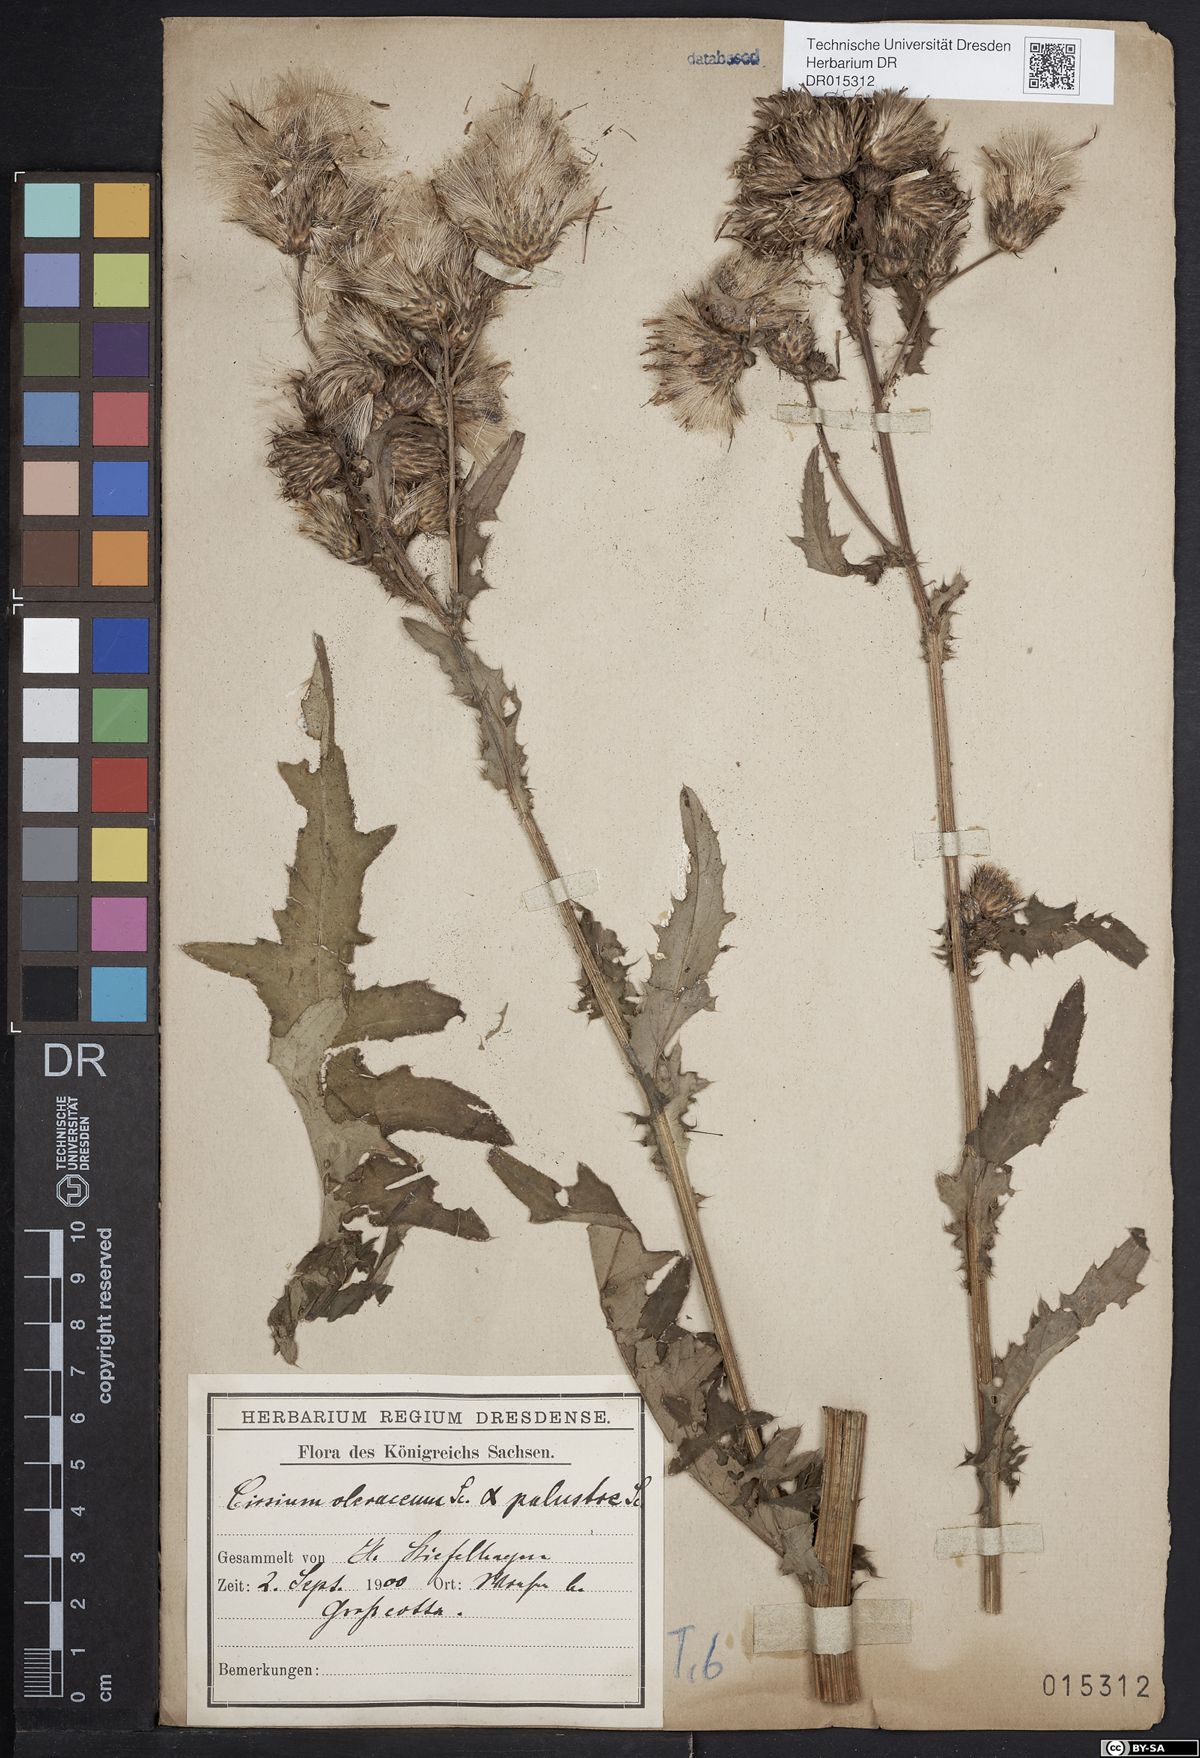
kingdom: Plantae
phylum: Tracheophyta
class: Magnoliopsida
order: Asterales
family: Asteraceae
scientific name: Asteraceae
